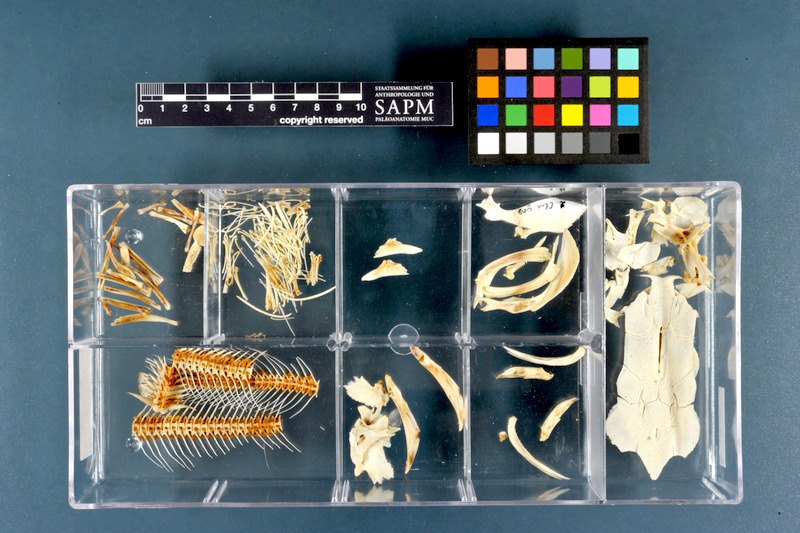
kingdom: Animalia
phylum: Chordata
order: Siluriformes
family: Clariidae
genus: Clarias
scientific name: Clarias anguillaris
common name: Catfish
